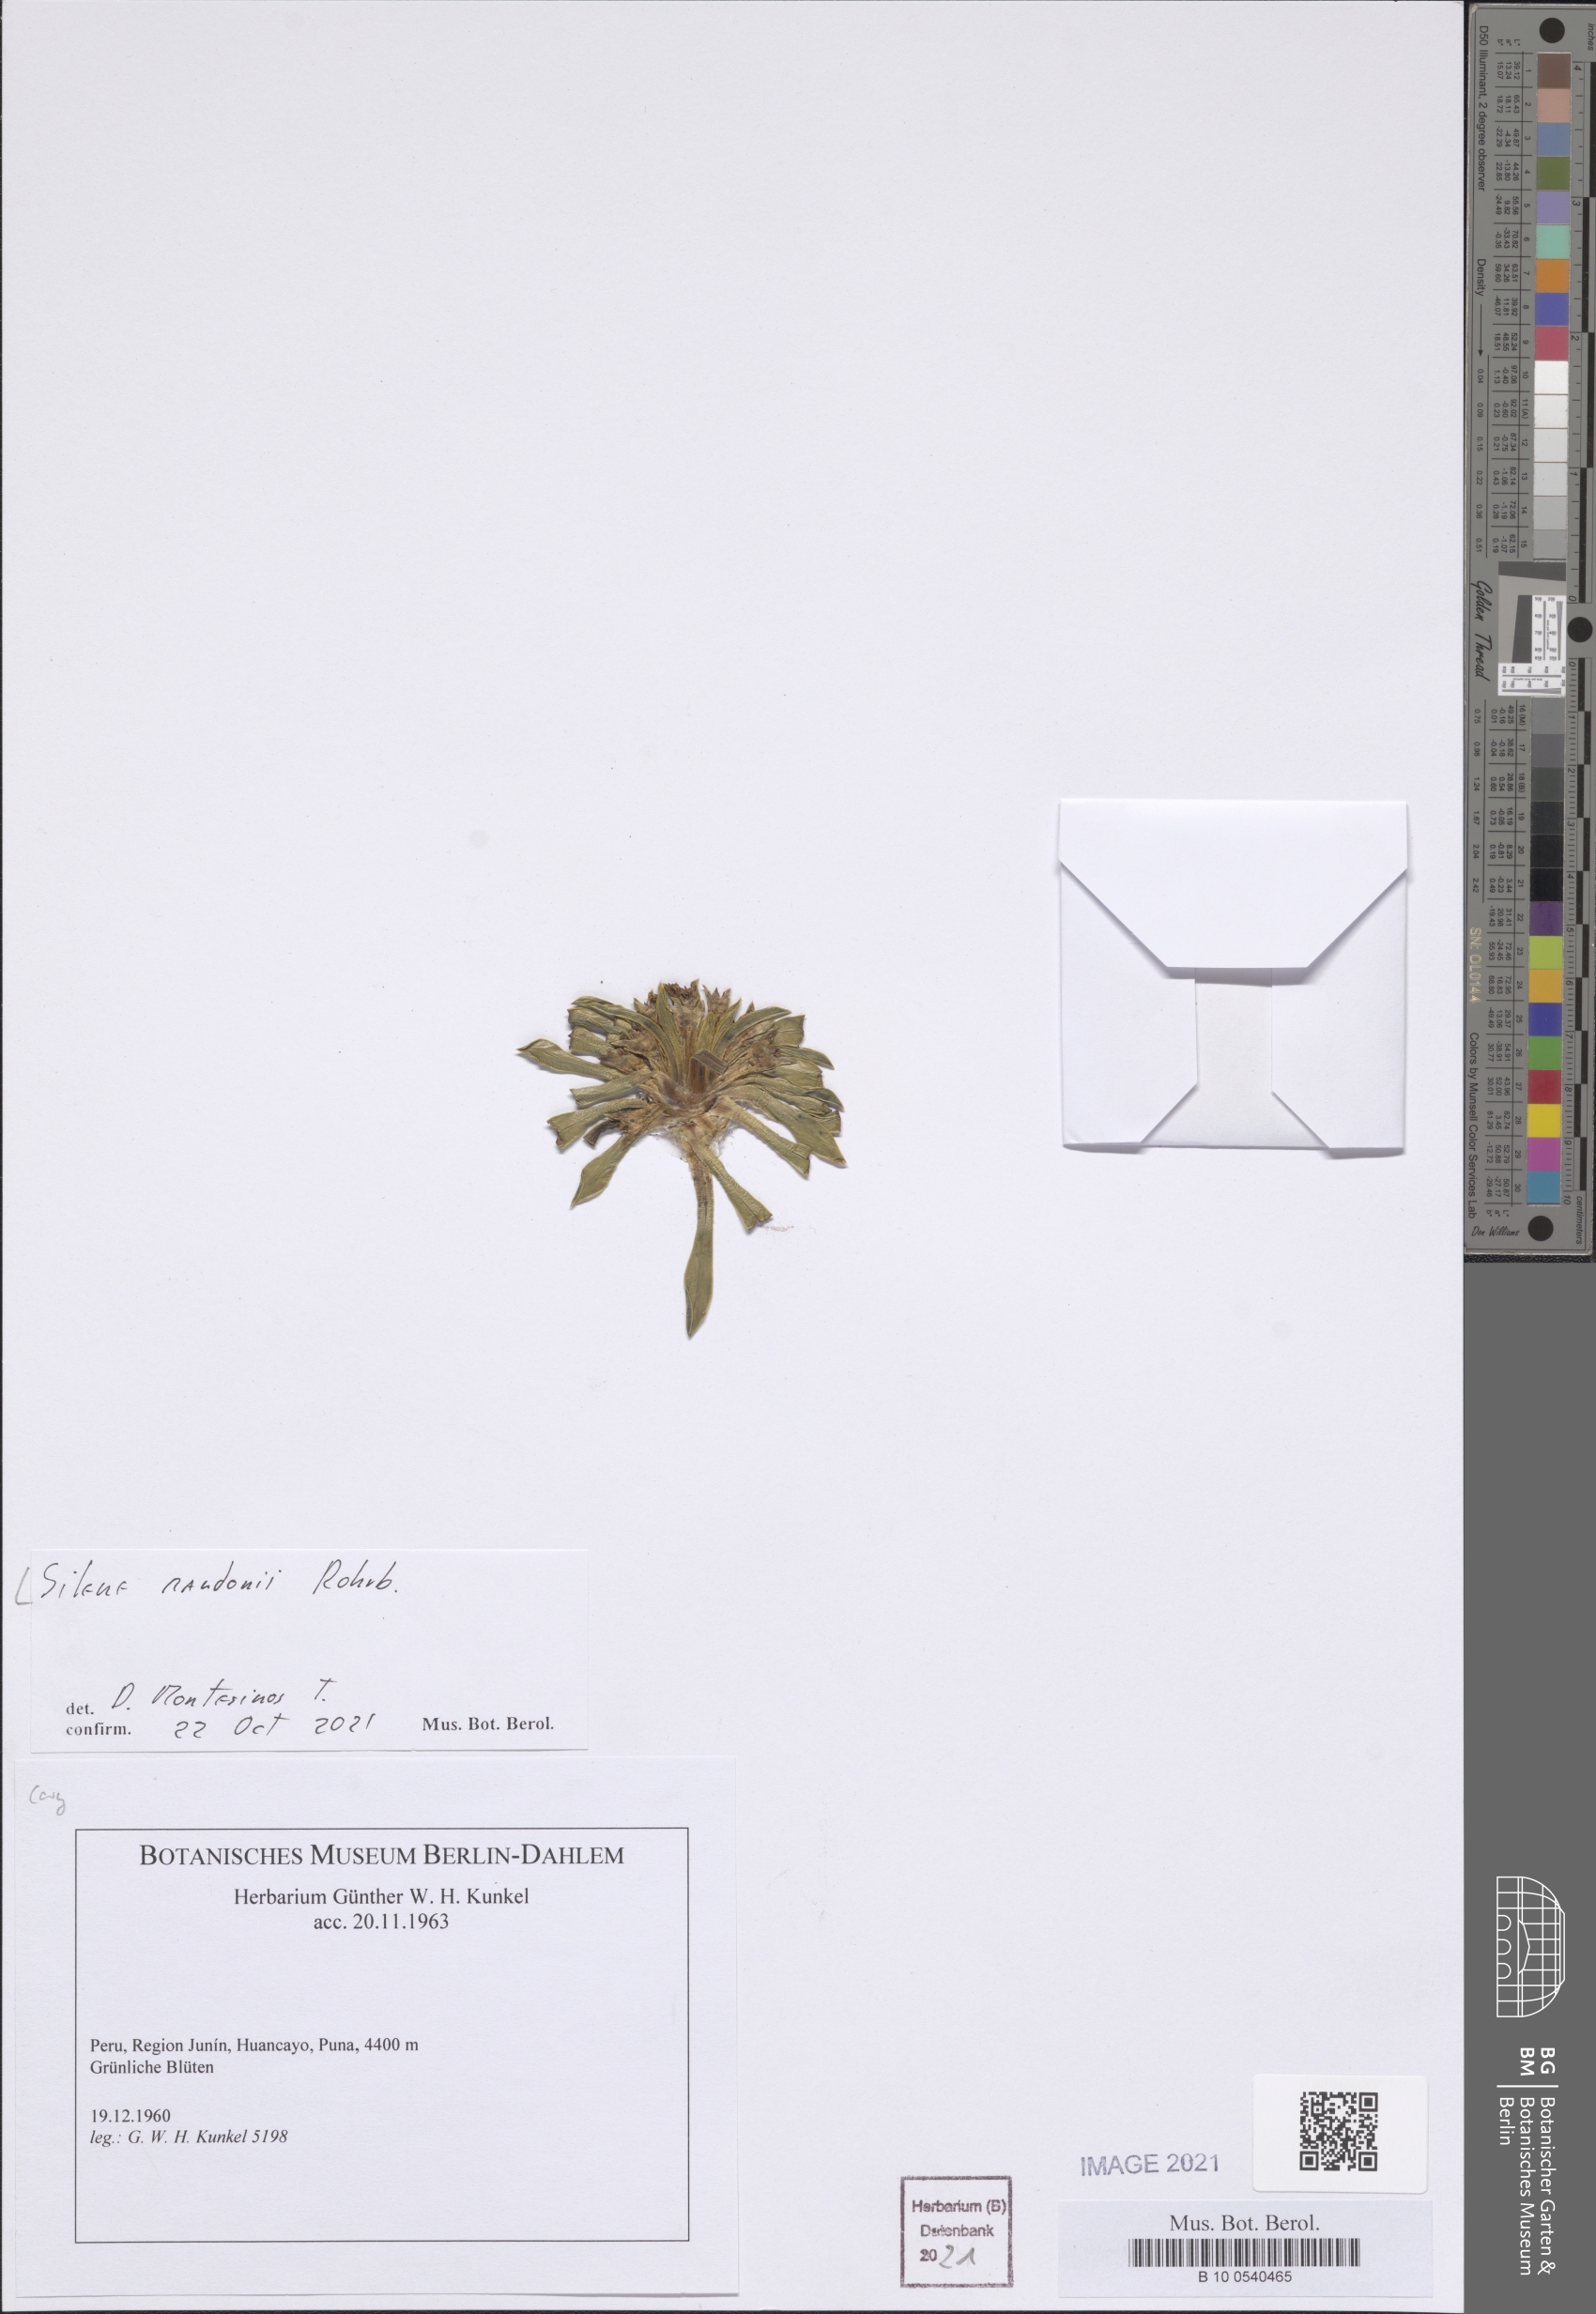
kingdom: Plantae
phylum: Tracheophyta
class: Magnoliopsida
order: Caryophyllales
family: Caryophyllaceae
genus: Silene
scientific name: Silene mandonii
